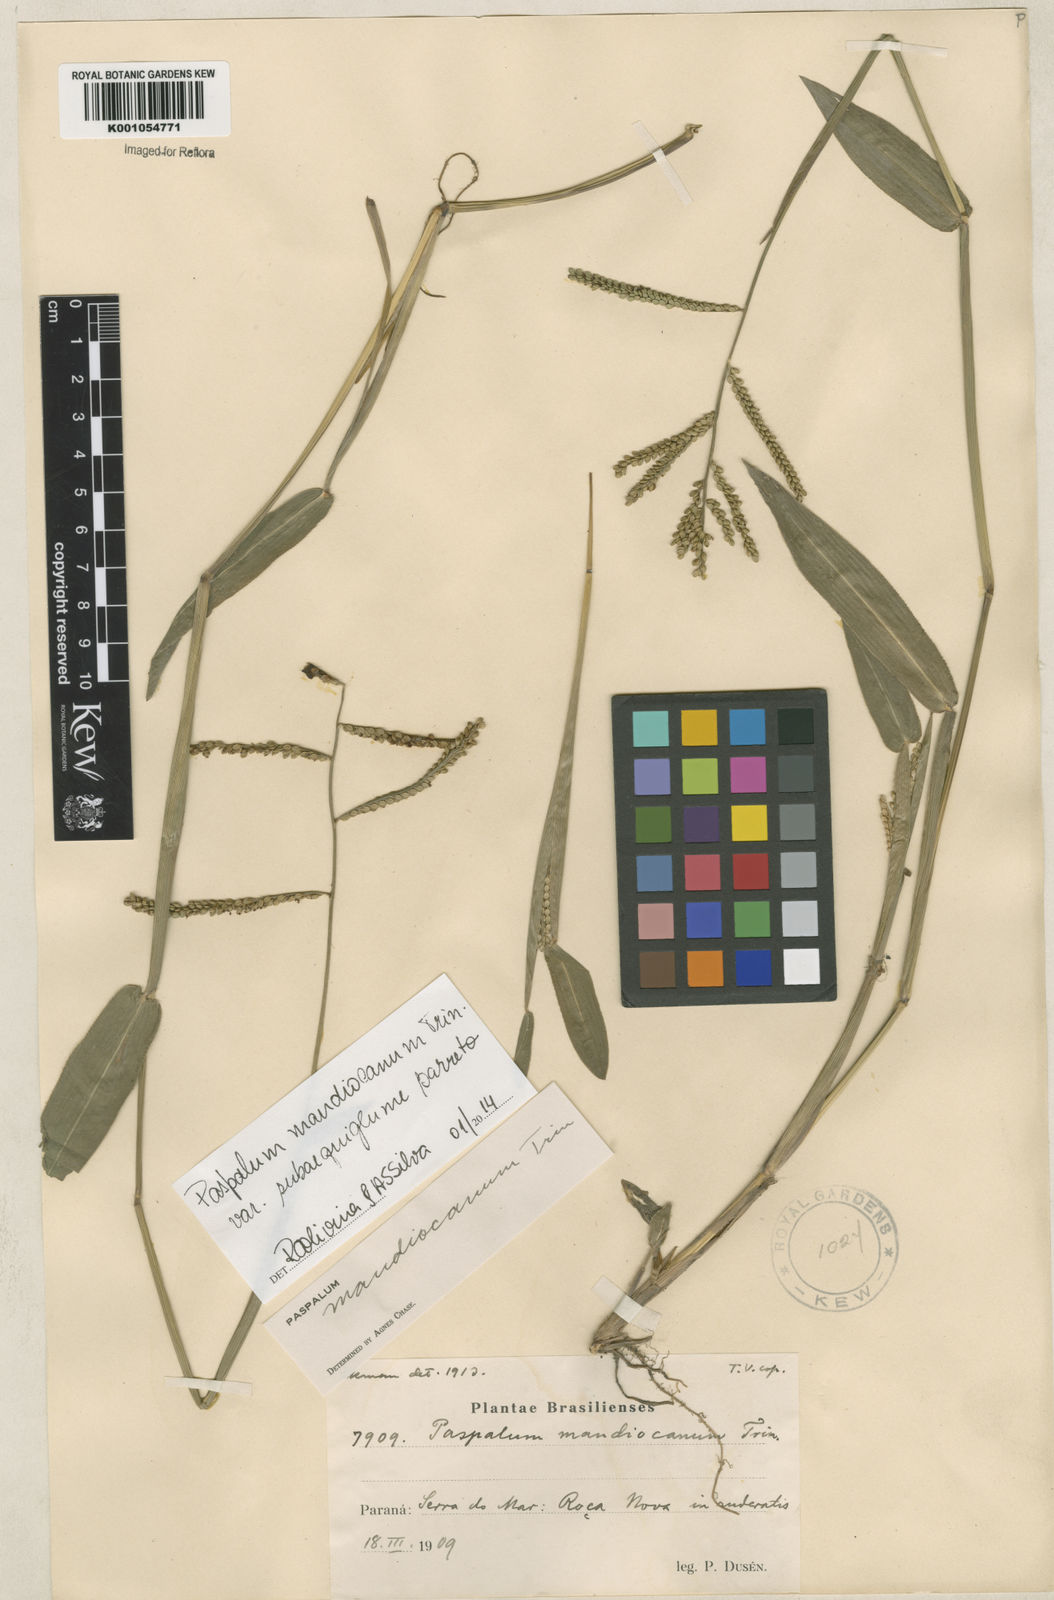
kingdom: Plantae
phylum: Tracheophyta
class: Liliopsida
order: Poales
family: Poaceae
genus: Paspalum
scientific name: Paspalum mandiocanum
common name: Paspalum
